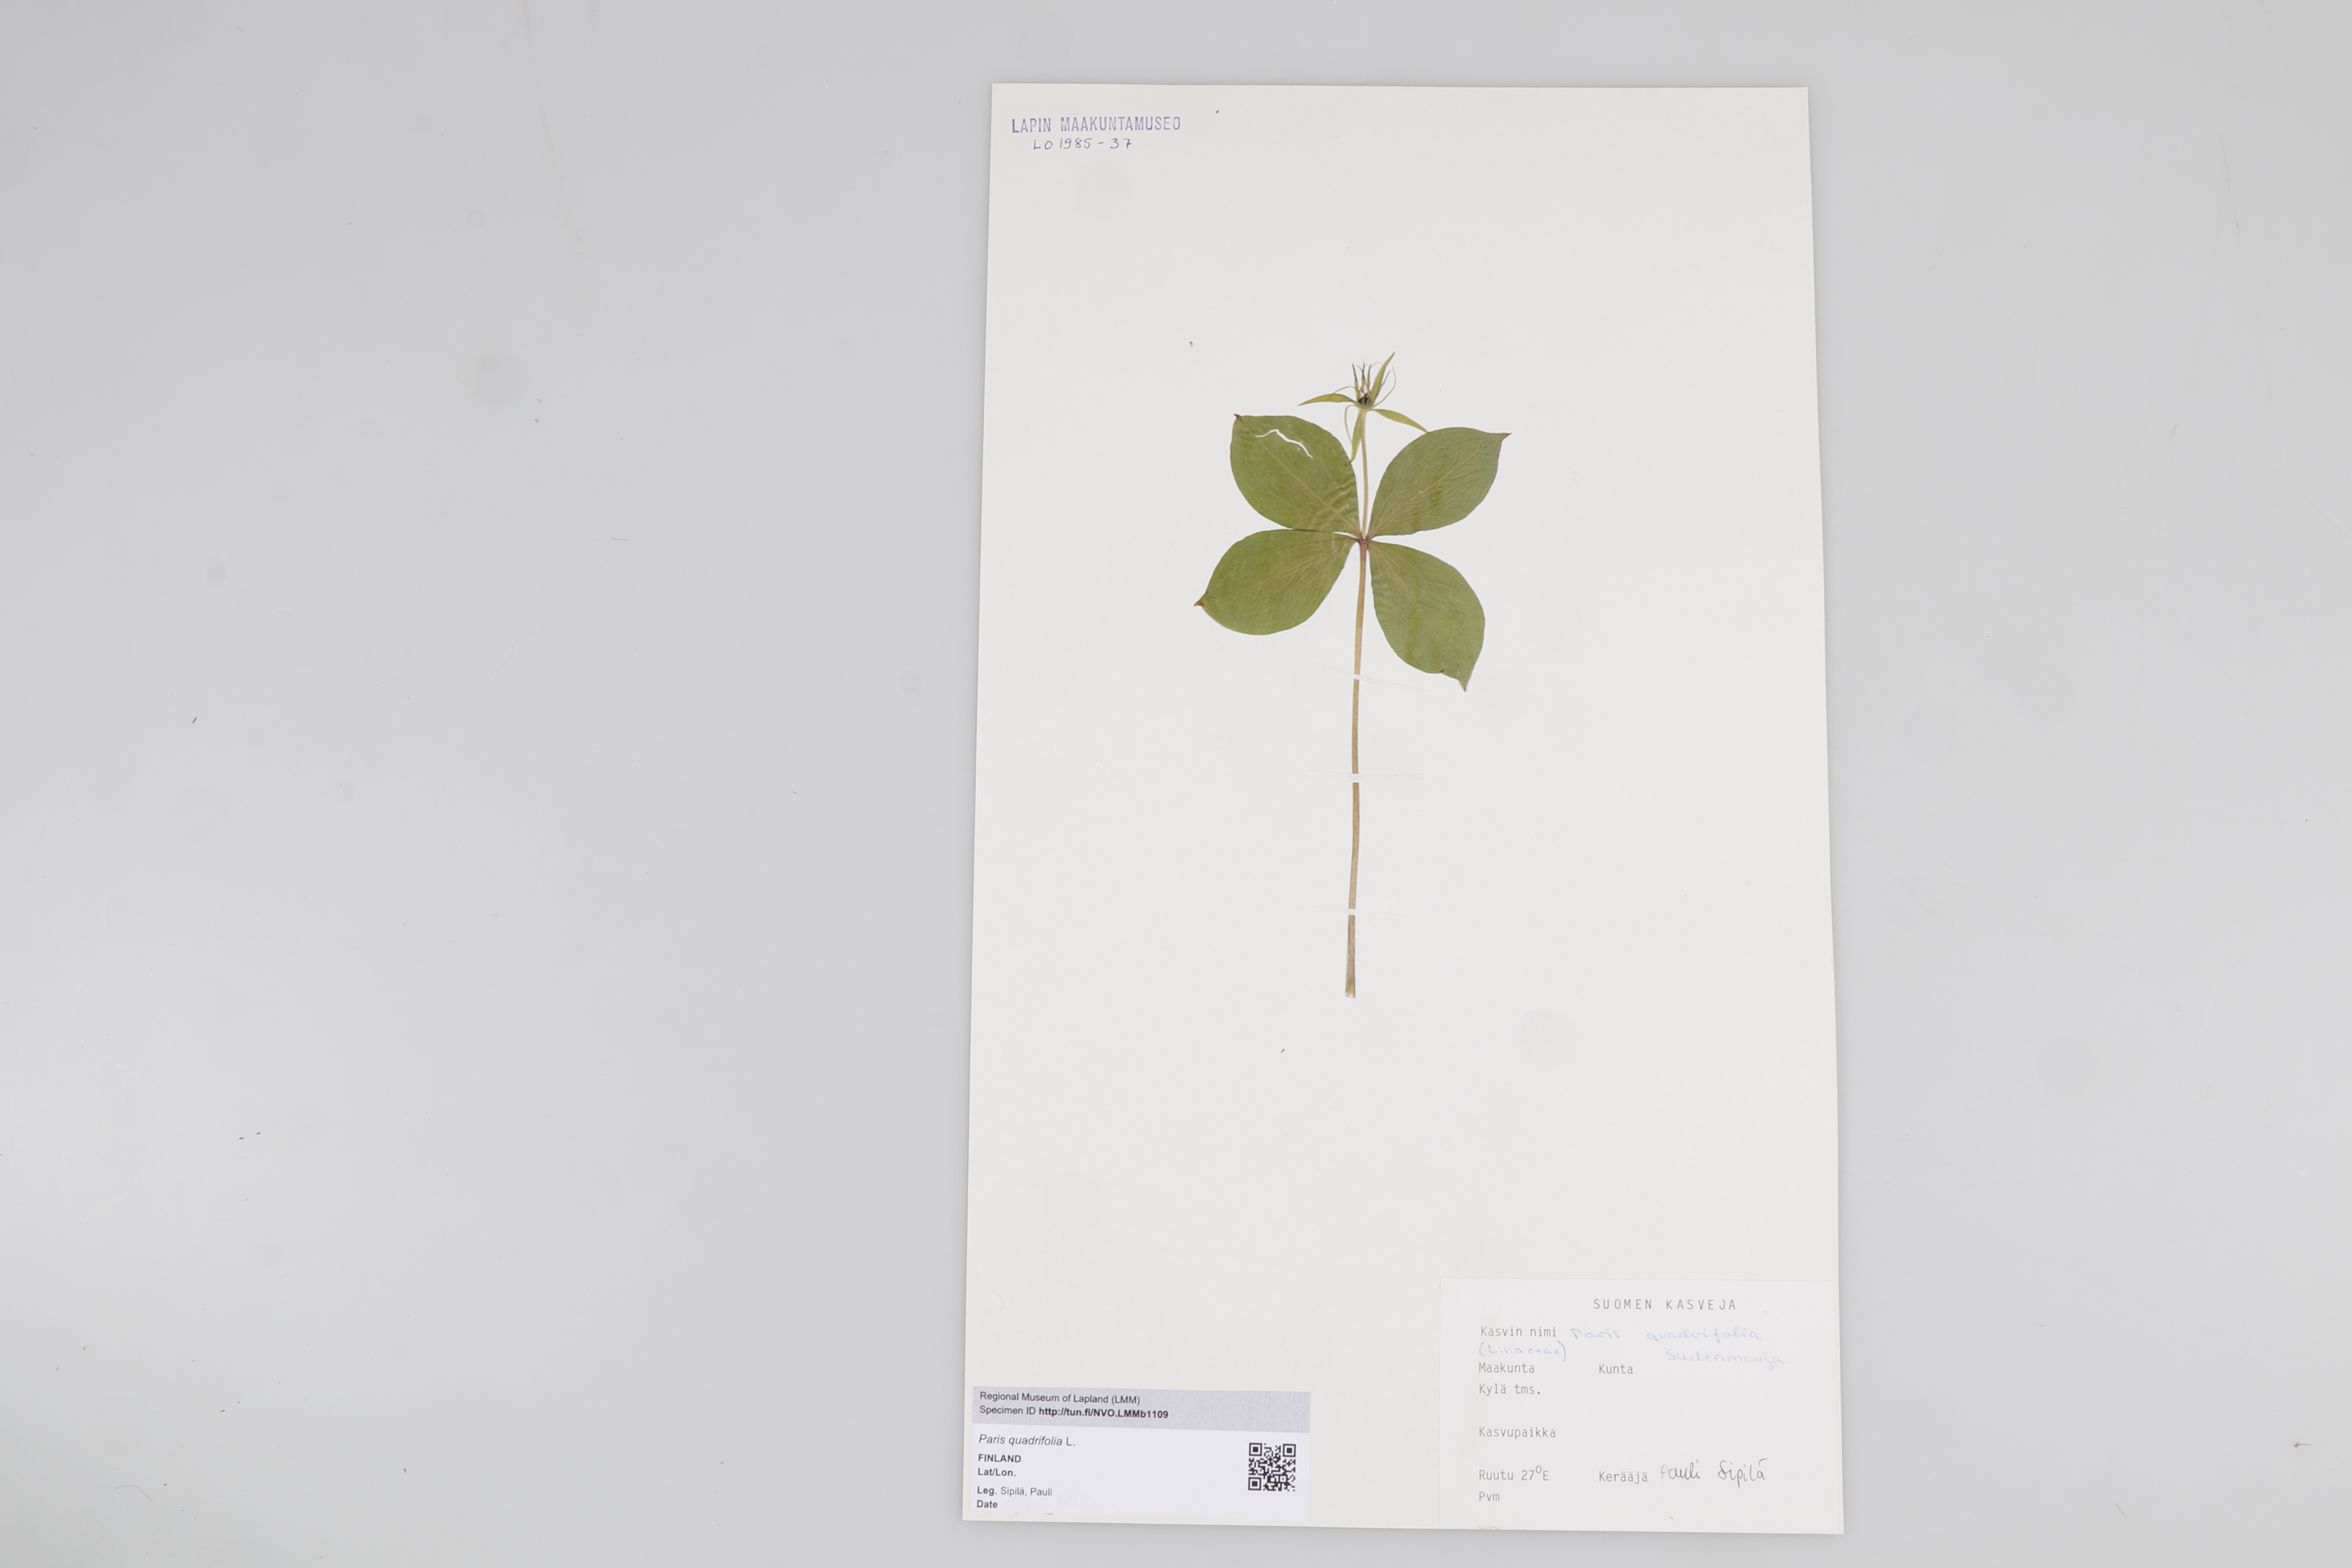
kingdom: Plantae
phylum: Tracheophyta
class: Liliopsida
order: Liliales
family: Melanthiaceae
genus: Paris
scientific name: Paris quadrifolia
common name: Herb-paris
